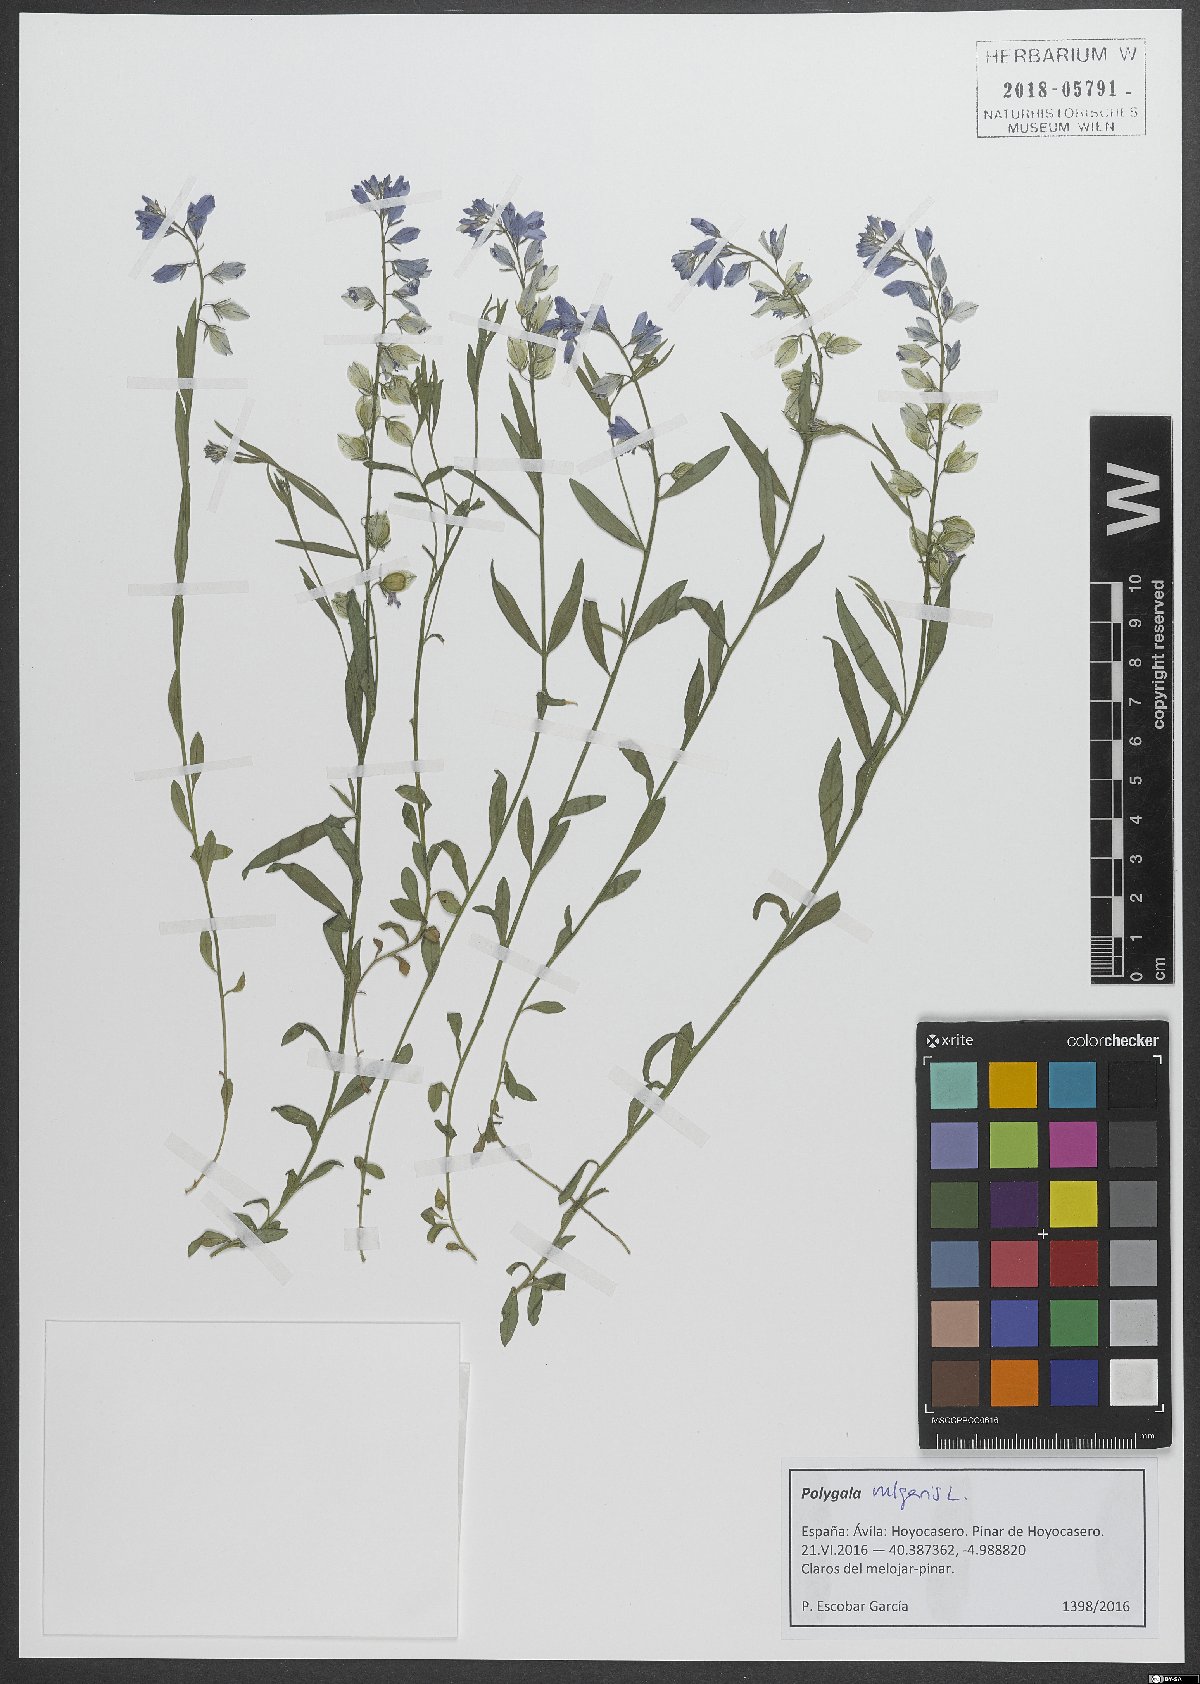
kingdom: Plantae
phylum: Tracheophyta
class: Magnoliopsida
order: Fabales
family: Polygalaceae
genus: Polygala
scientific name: Polygala vulgaris
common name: Common milkwort
